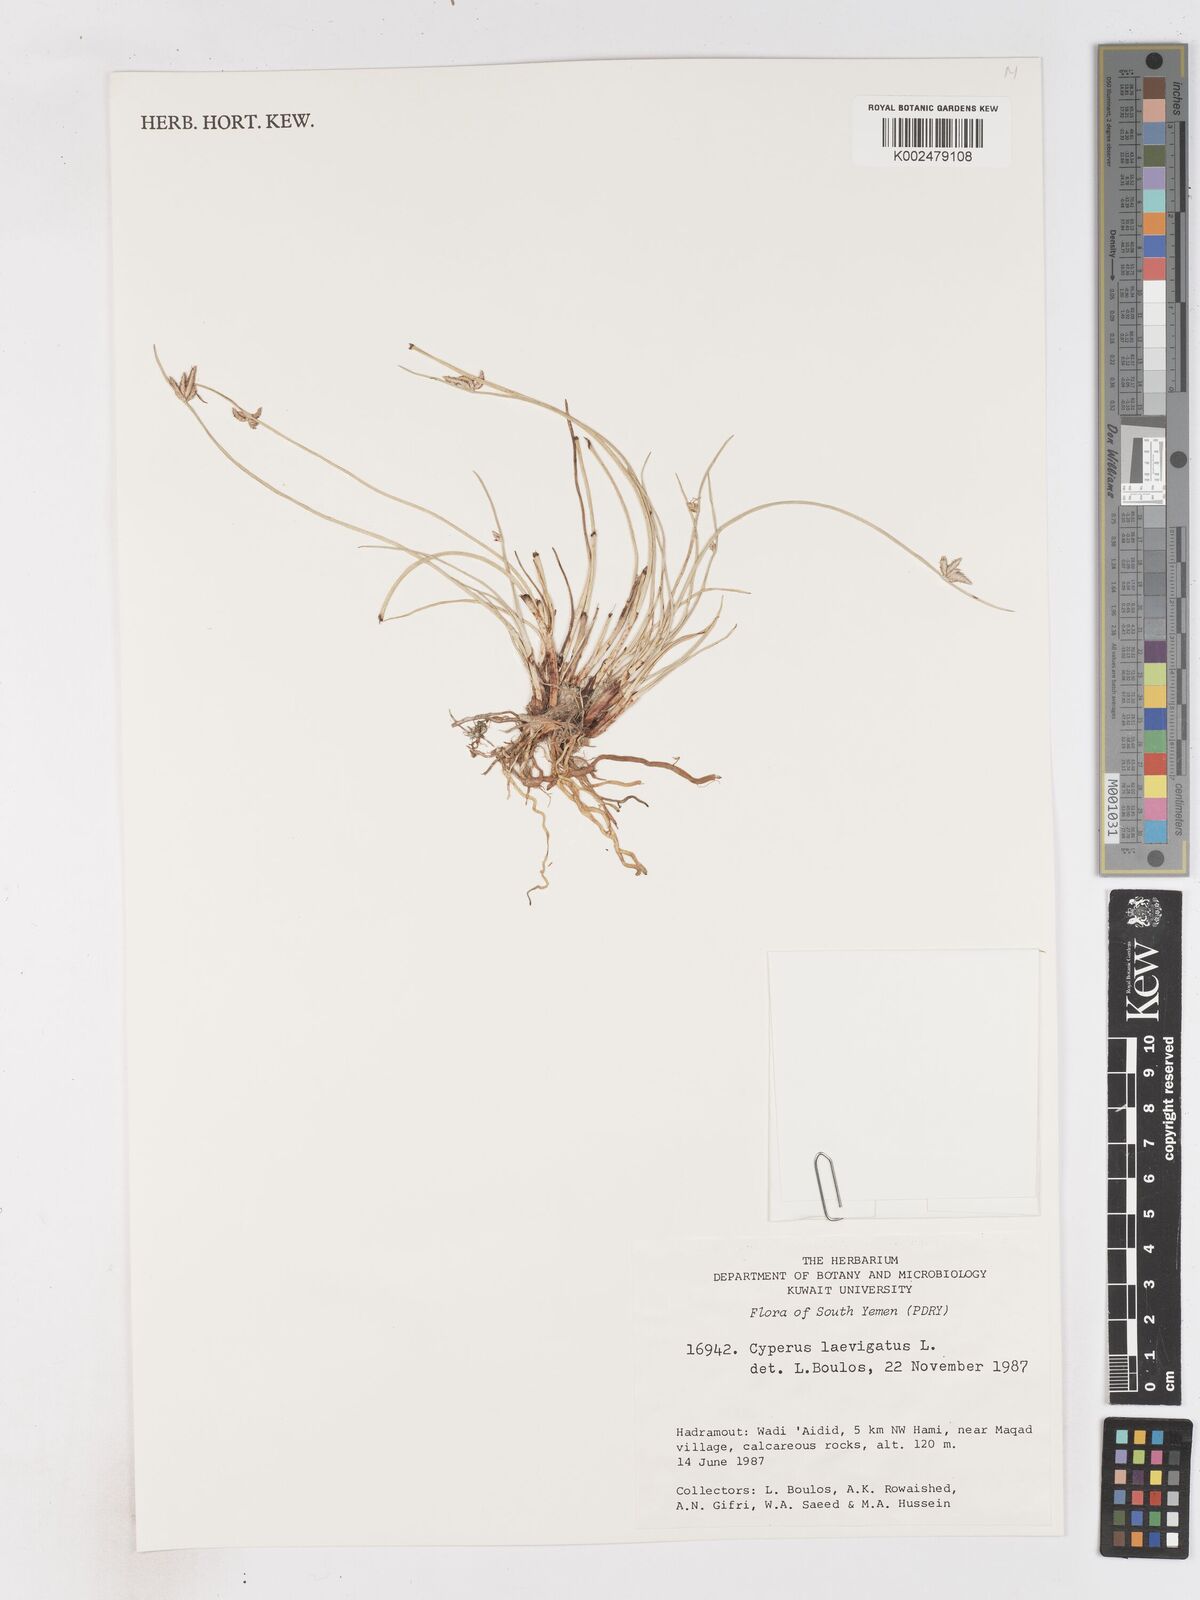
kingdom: Plantae
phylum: Tracheophyta
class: Liliopsida
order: Poales
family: Cyperaceae
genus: Cyperus
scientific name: Cyperus laevigatus
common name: Smooth flat sedge
